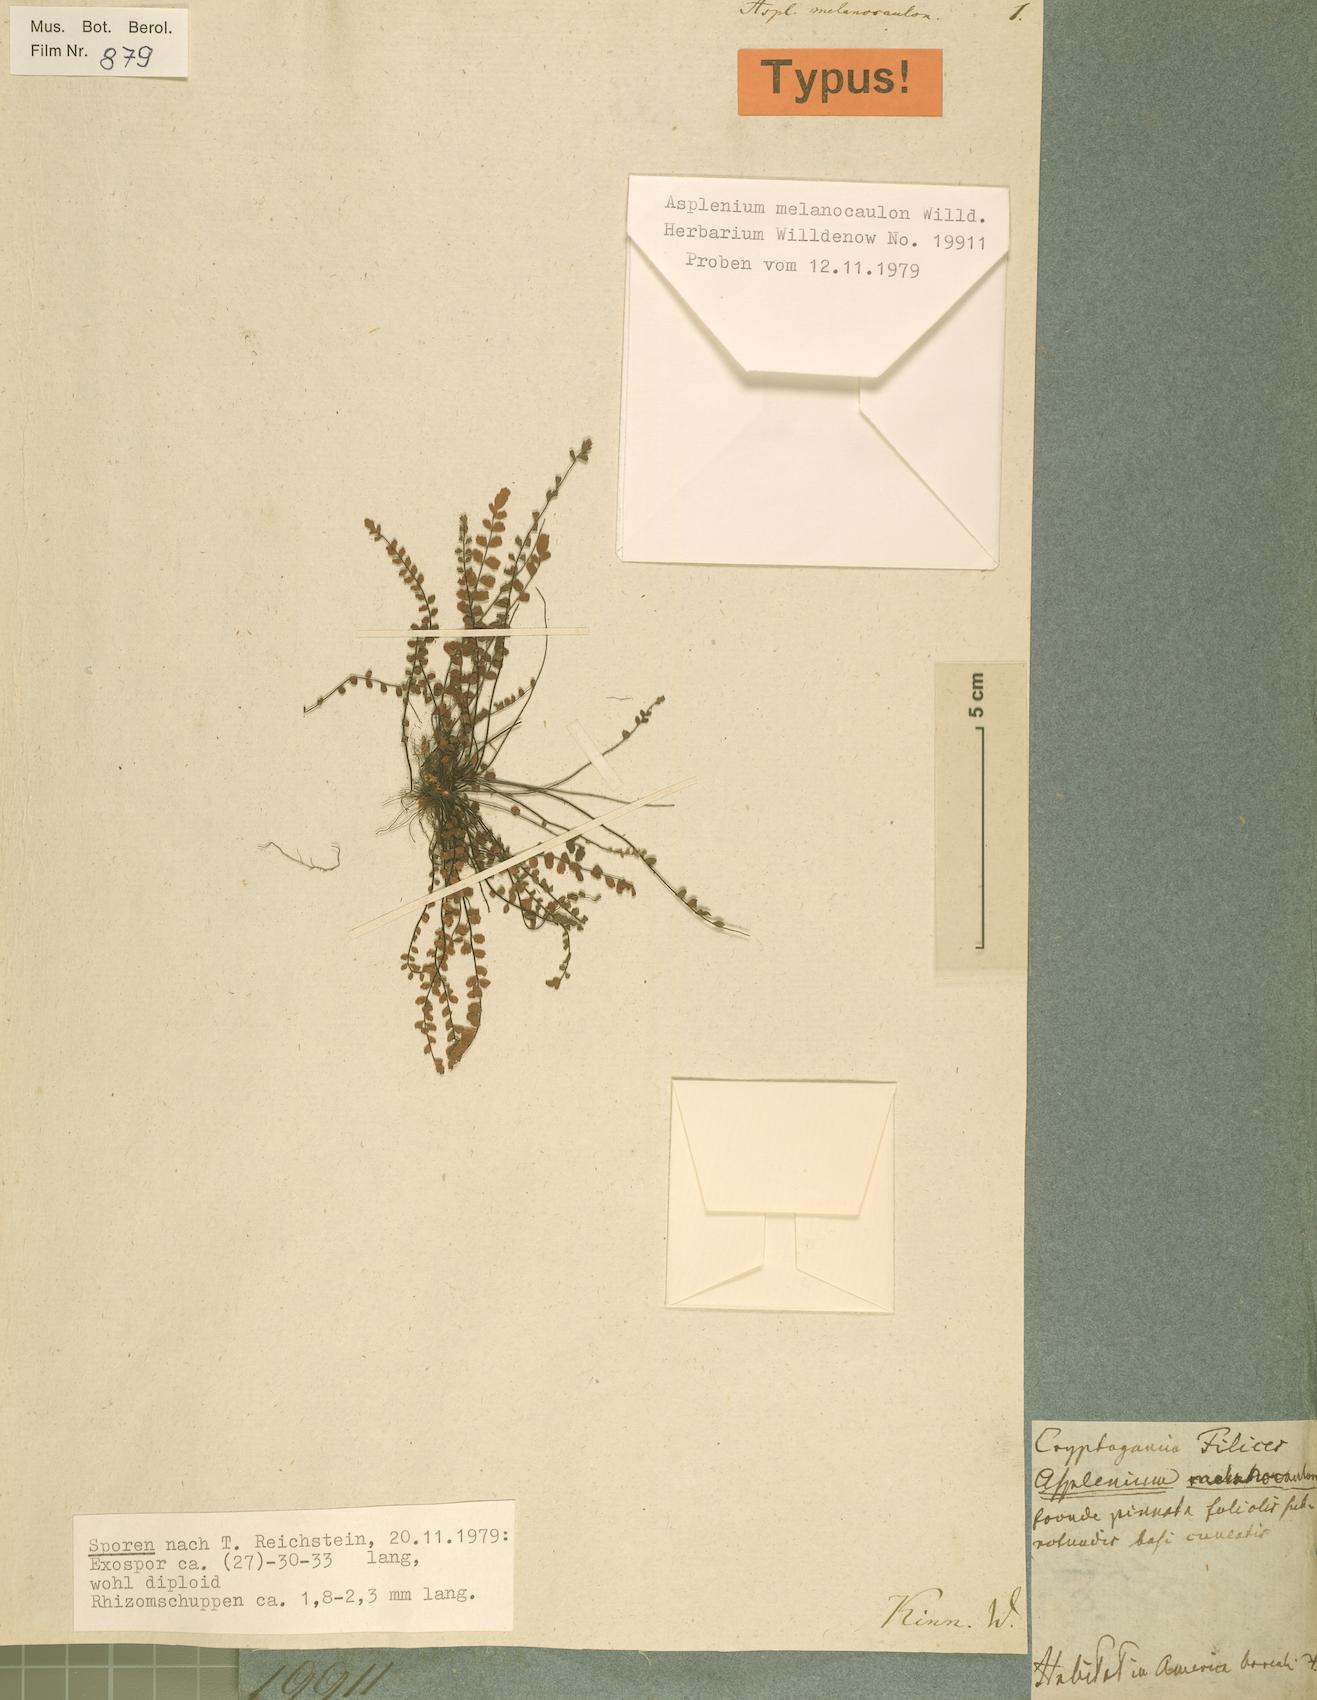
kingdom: Plantae
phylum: Tracheophyta
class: Polypodiopsida
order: Polypodiales
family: Aspleniaceae
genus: Asplenium
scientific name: Asplenium trichomanes
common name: Maidenhair spleenwort
